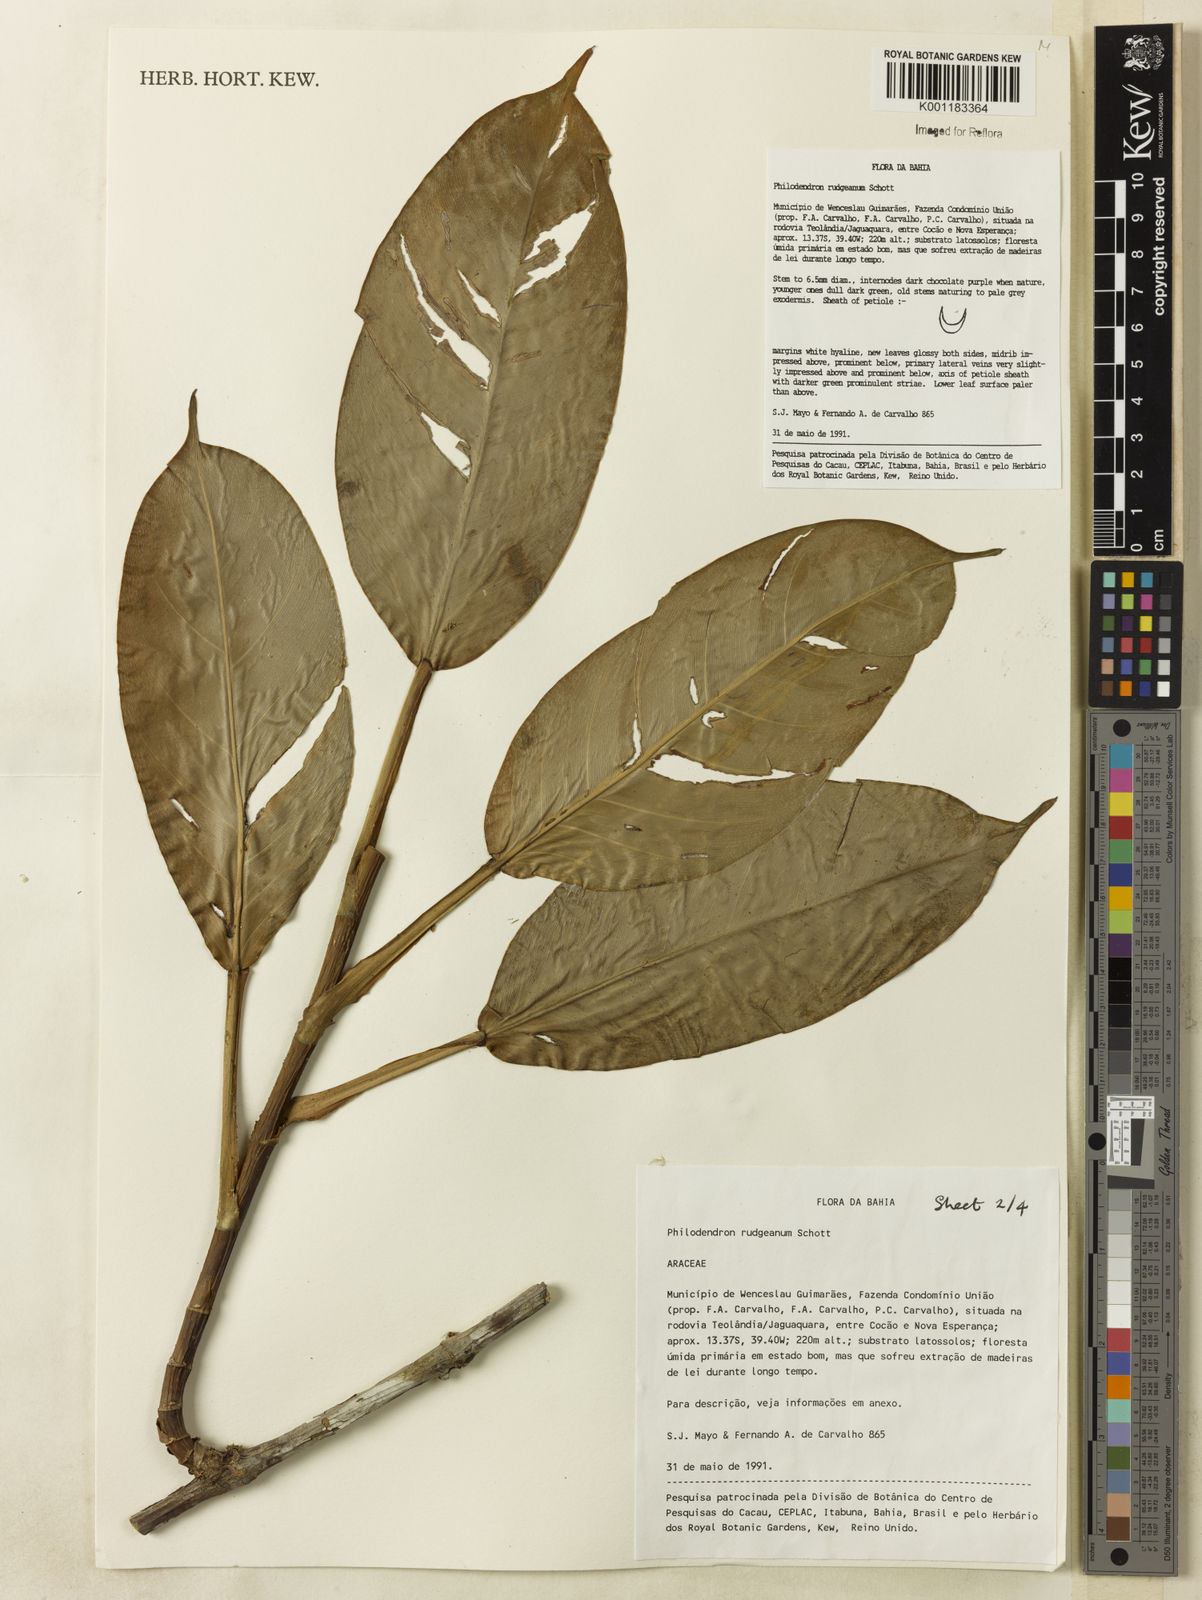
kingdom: Plantae
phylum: Tracheophyta
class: Liliopsida
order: Alismatales
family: Araceae
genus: Philodendron
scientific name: Philodendron rudgeanum
